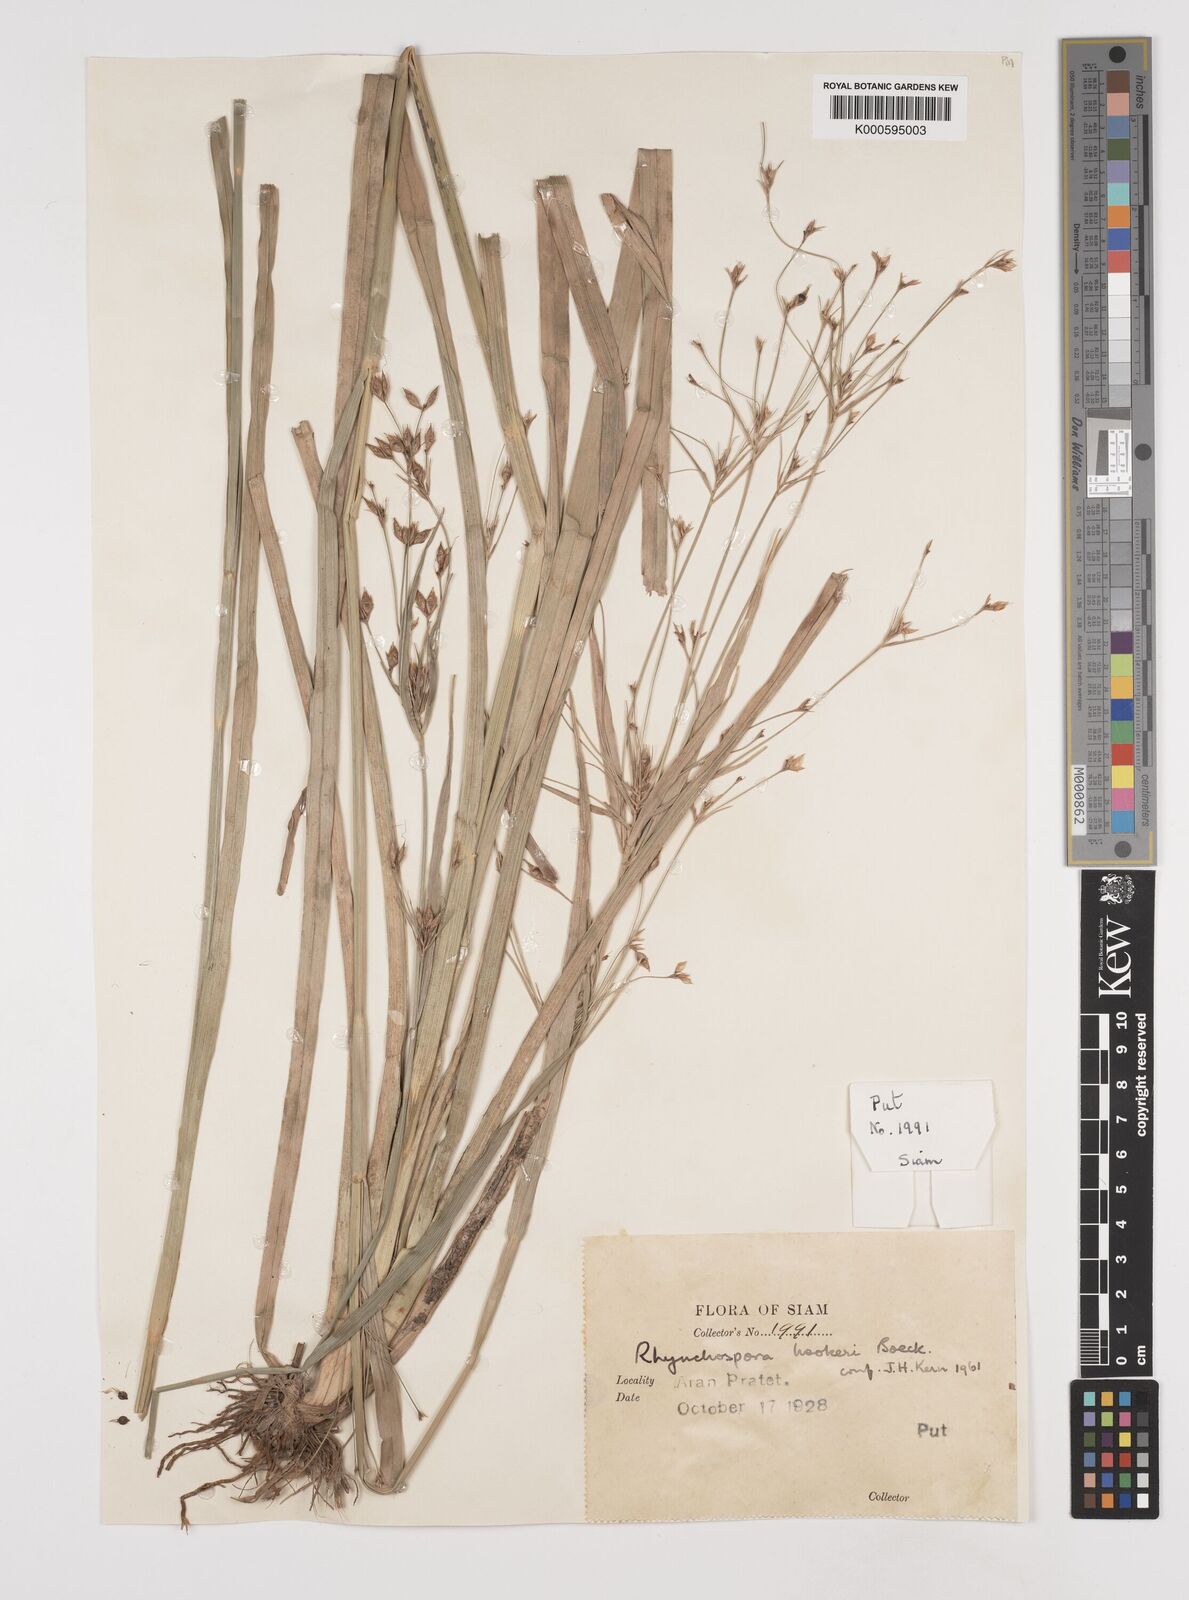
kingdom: Plantae
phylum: Tracheophyta
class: Liliopsida
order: Poales
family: Cyperaceae
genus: Rhynchospora
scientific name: Rhynchospora hookeri
